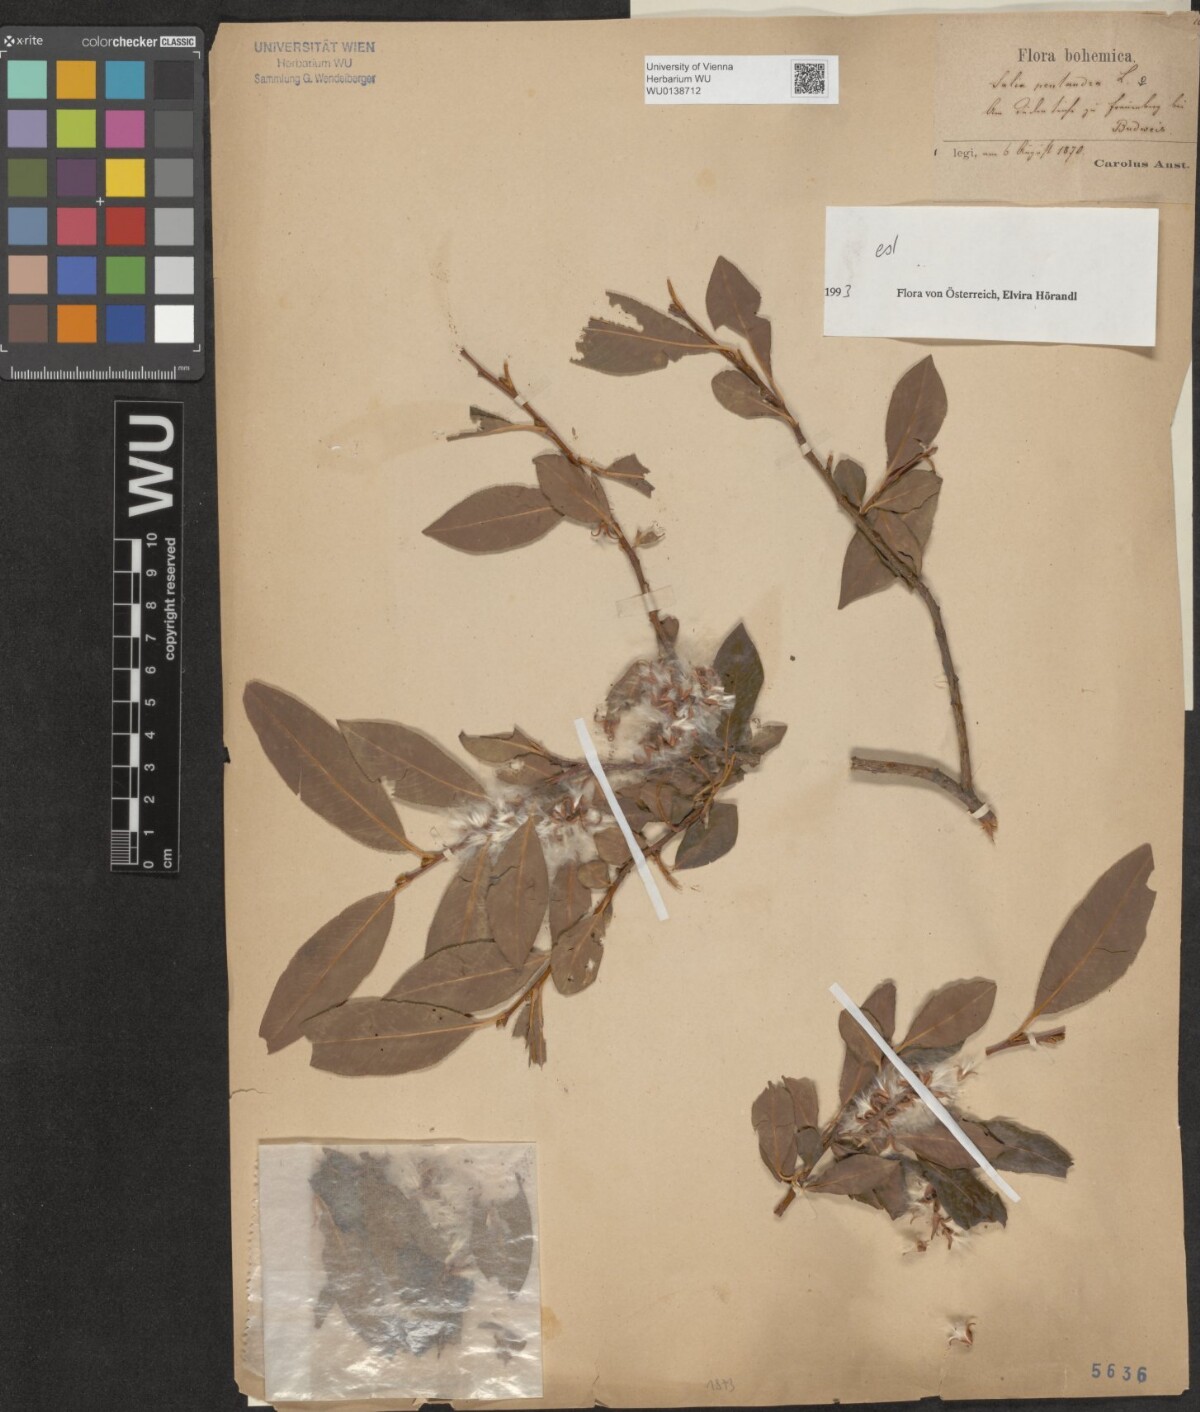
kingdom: Plantae
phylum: Tracheophyta
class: Magnoliopsida
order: Malpighiales
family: Salicaceae
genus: Salix
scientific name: Salix pentandra
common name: Bay willow
